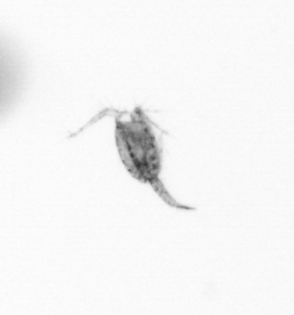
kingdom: Animalia
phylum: Arthropoda
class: Copepoda
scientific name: Copepoda
